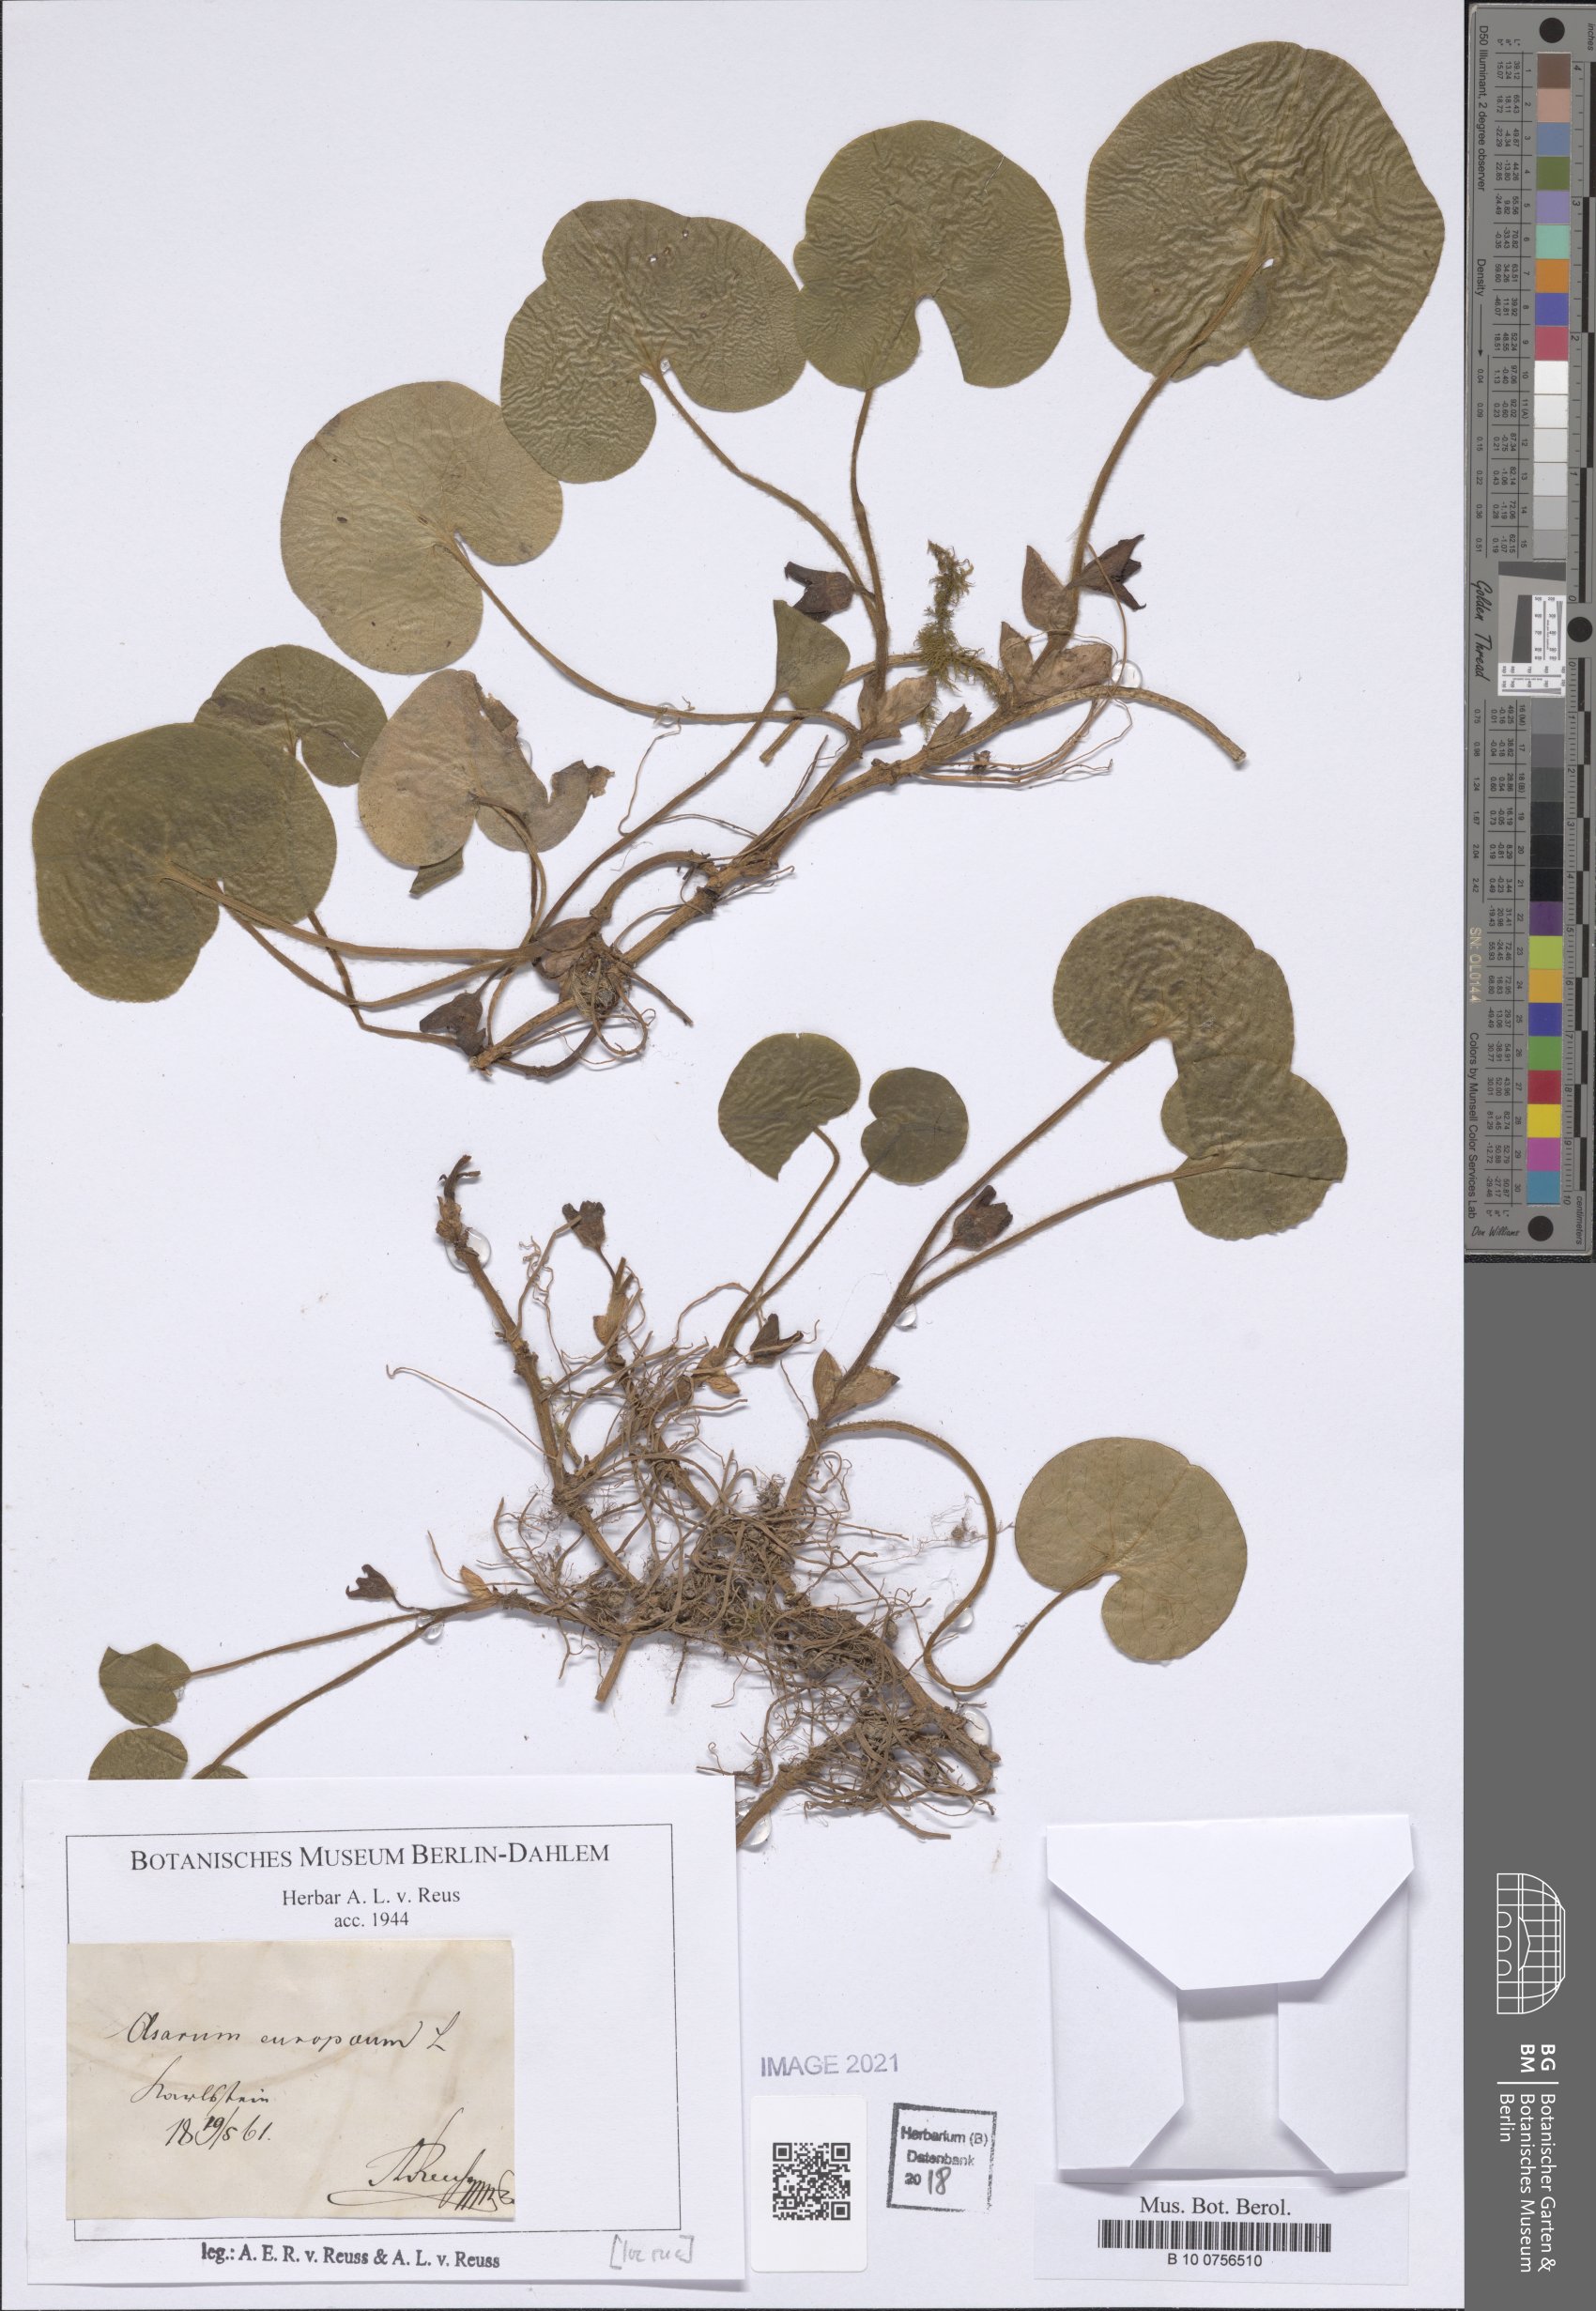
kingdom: Plantae
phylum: Tracheophyta
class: Magnoliopsida
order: Piperales
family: Aristolochiaceae
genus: Asarum
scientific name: Asarum europaeum
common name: Asarabacca
